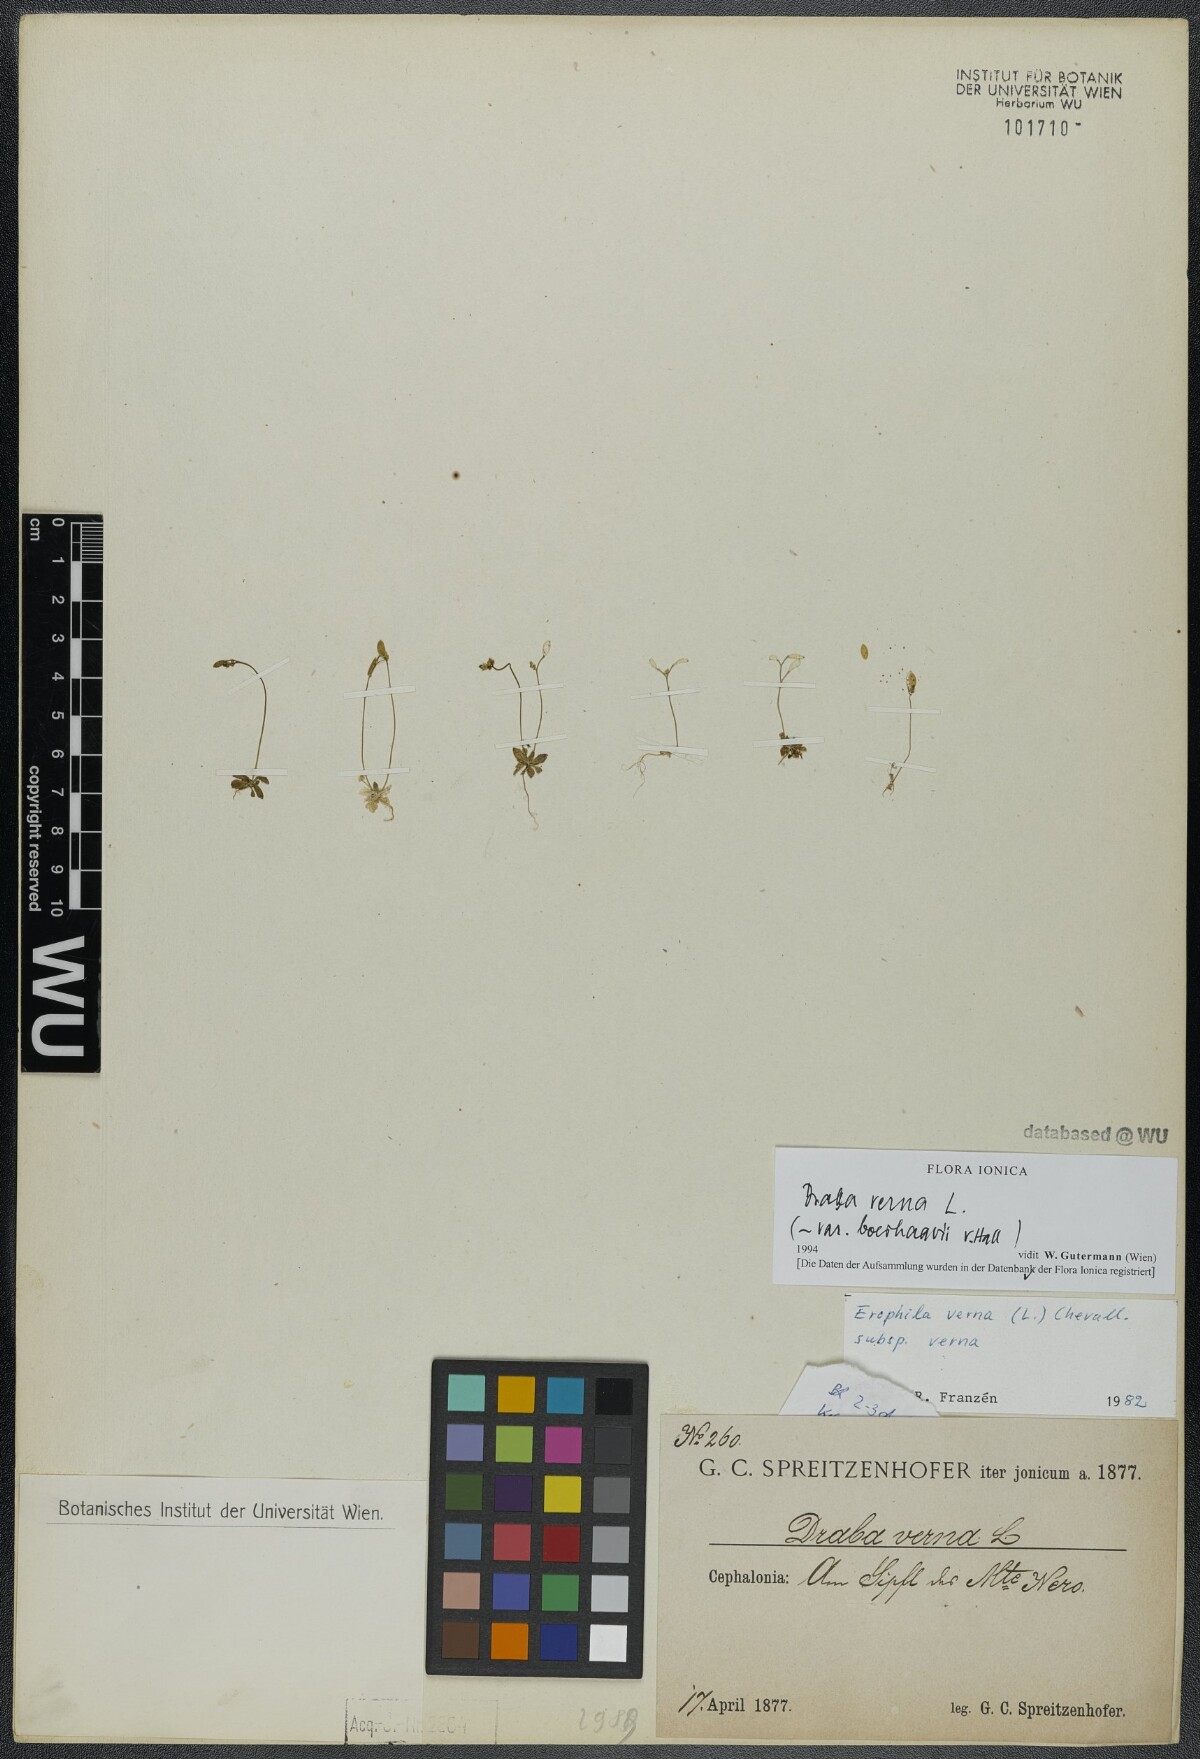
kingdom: Plantae
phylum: Tracheophyta
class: Magnoliopsida
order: Brassicales
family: Brassicaceae
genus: Draba
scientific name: Draba verna
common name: Spring draba
